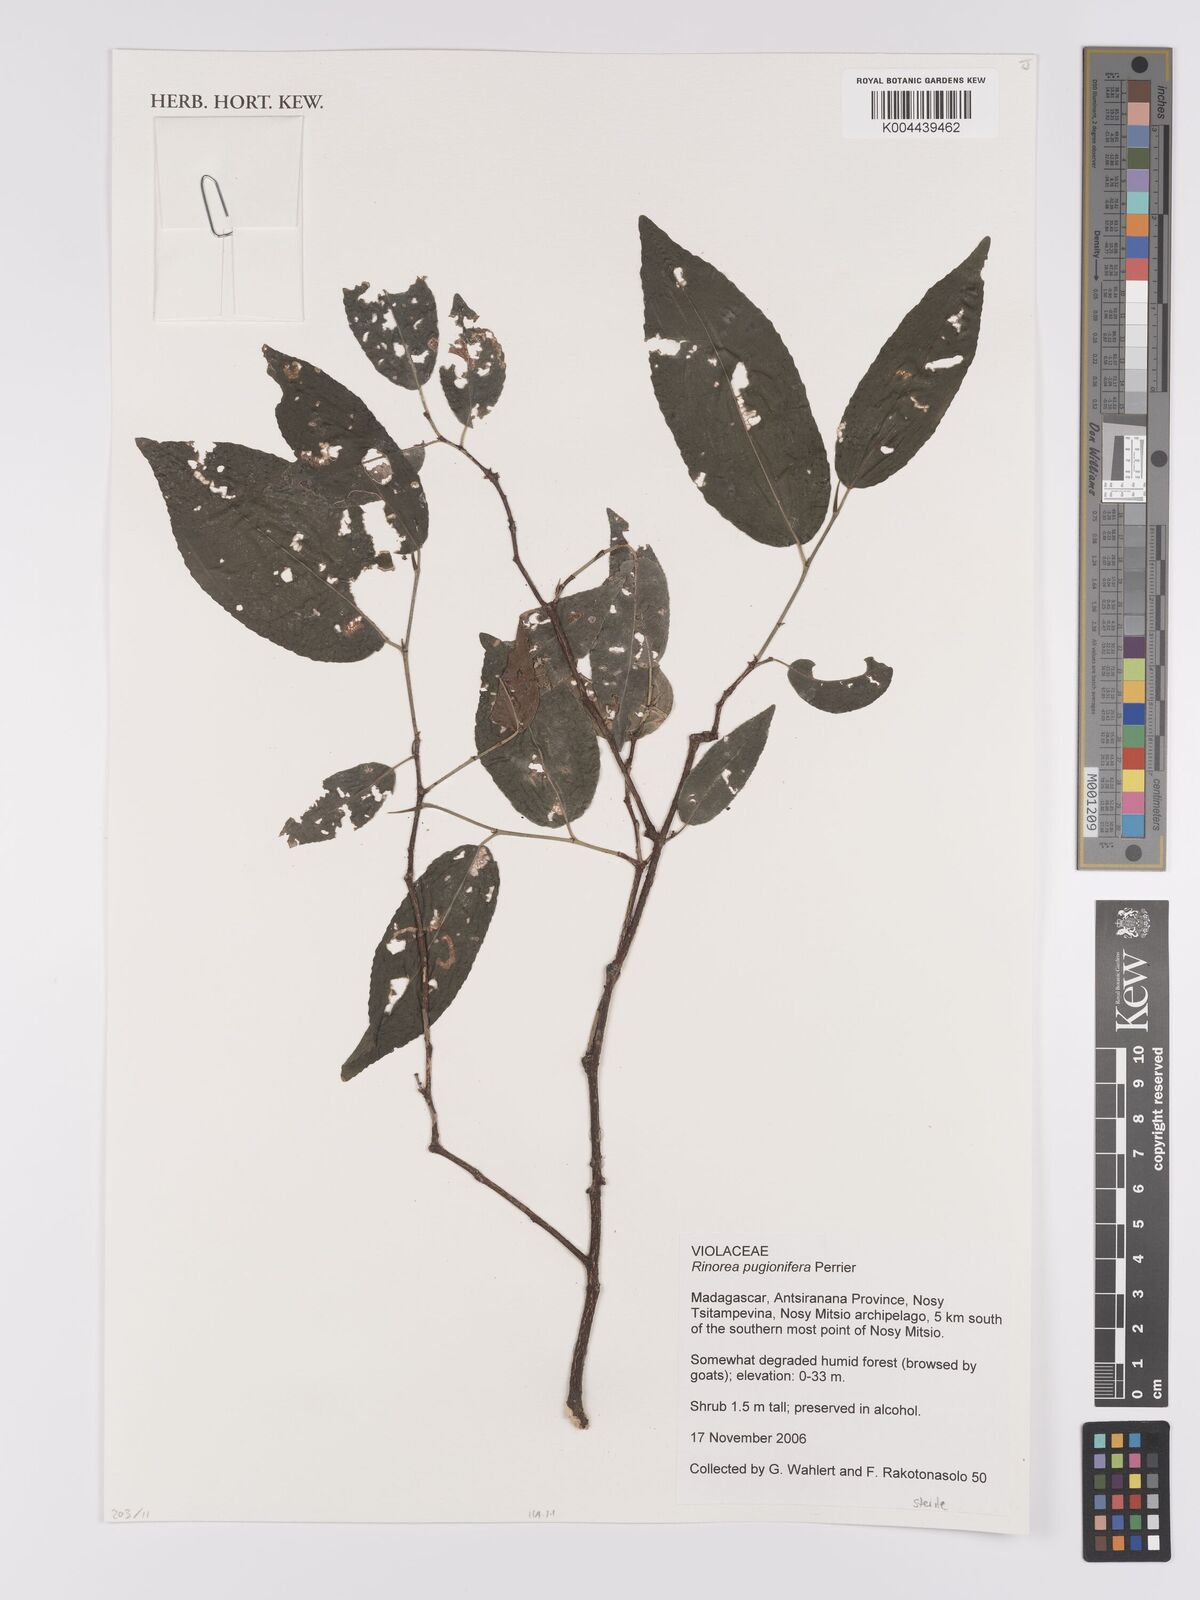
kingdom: Plantae
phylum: Tracheophyta
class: Magnoliopsida
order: Malpighiales
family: Violaceae
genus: Rinorea
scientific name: Rinorea pugionifera
